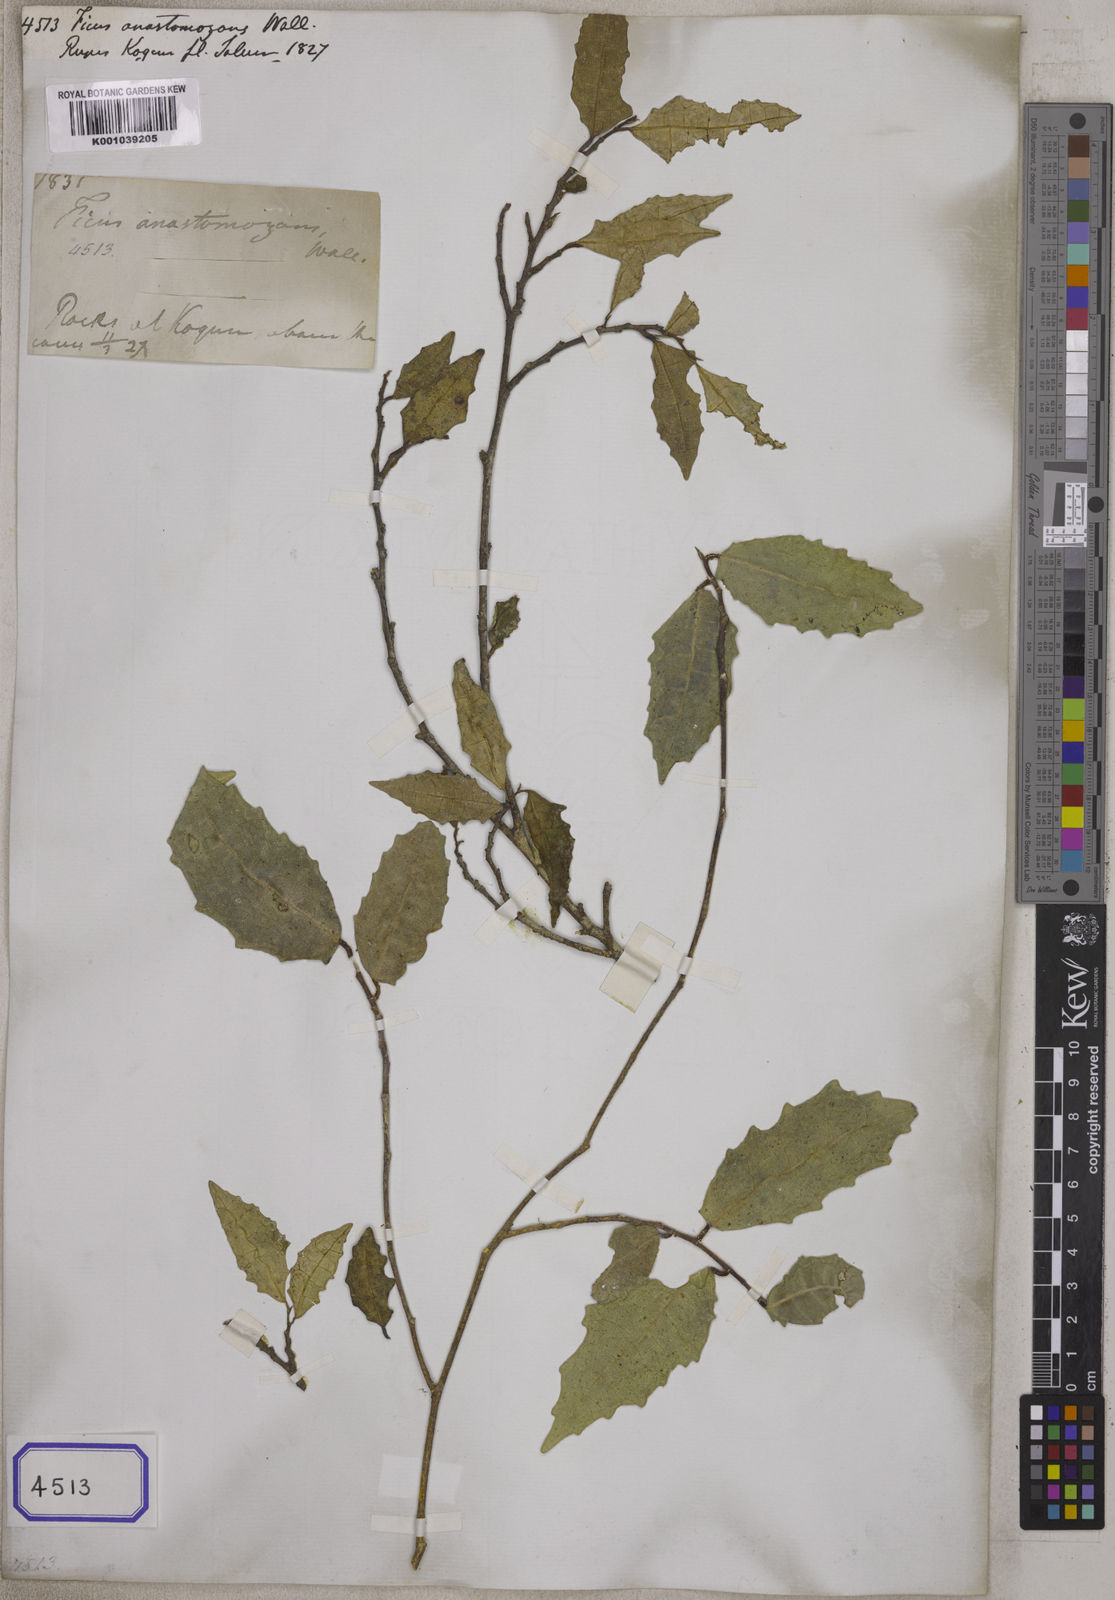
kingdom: Plantae
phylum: Tracheophyta
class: Magnoliopsida
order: Rosales
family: Moraceae
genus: Ficus
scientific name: Ficus
